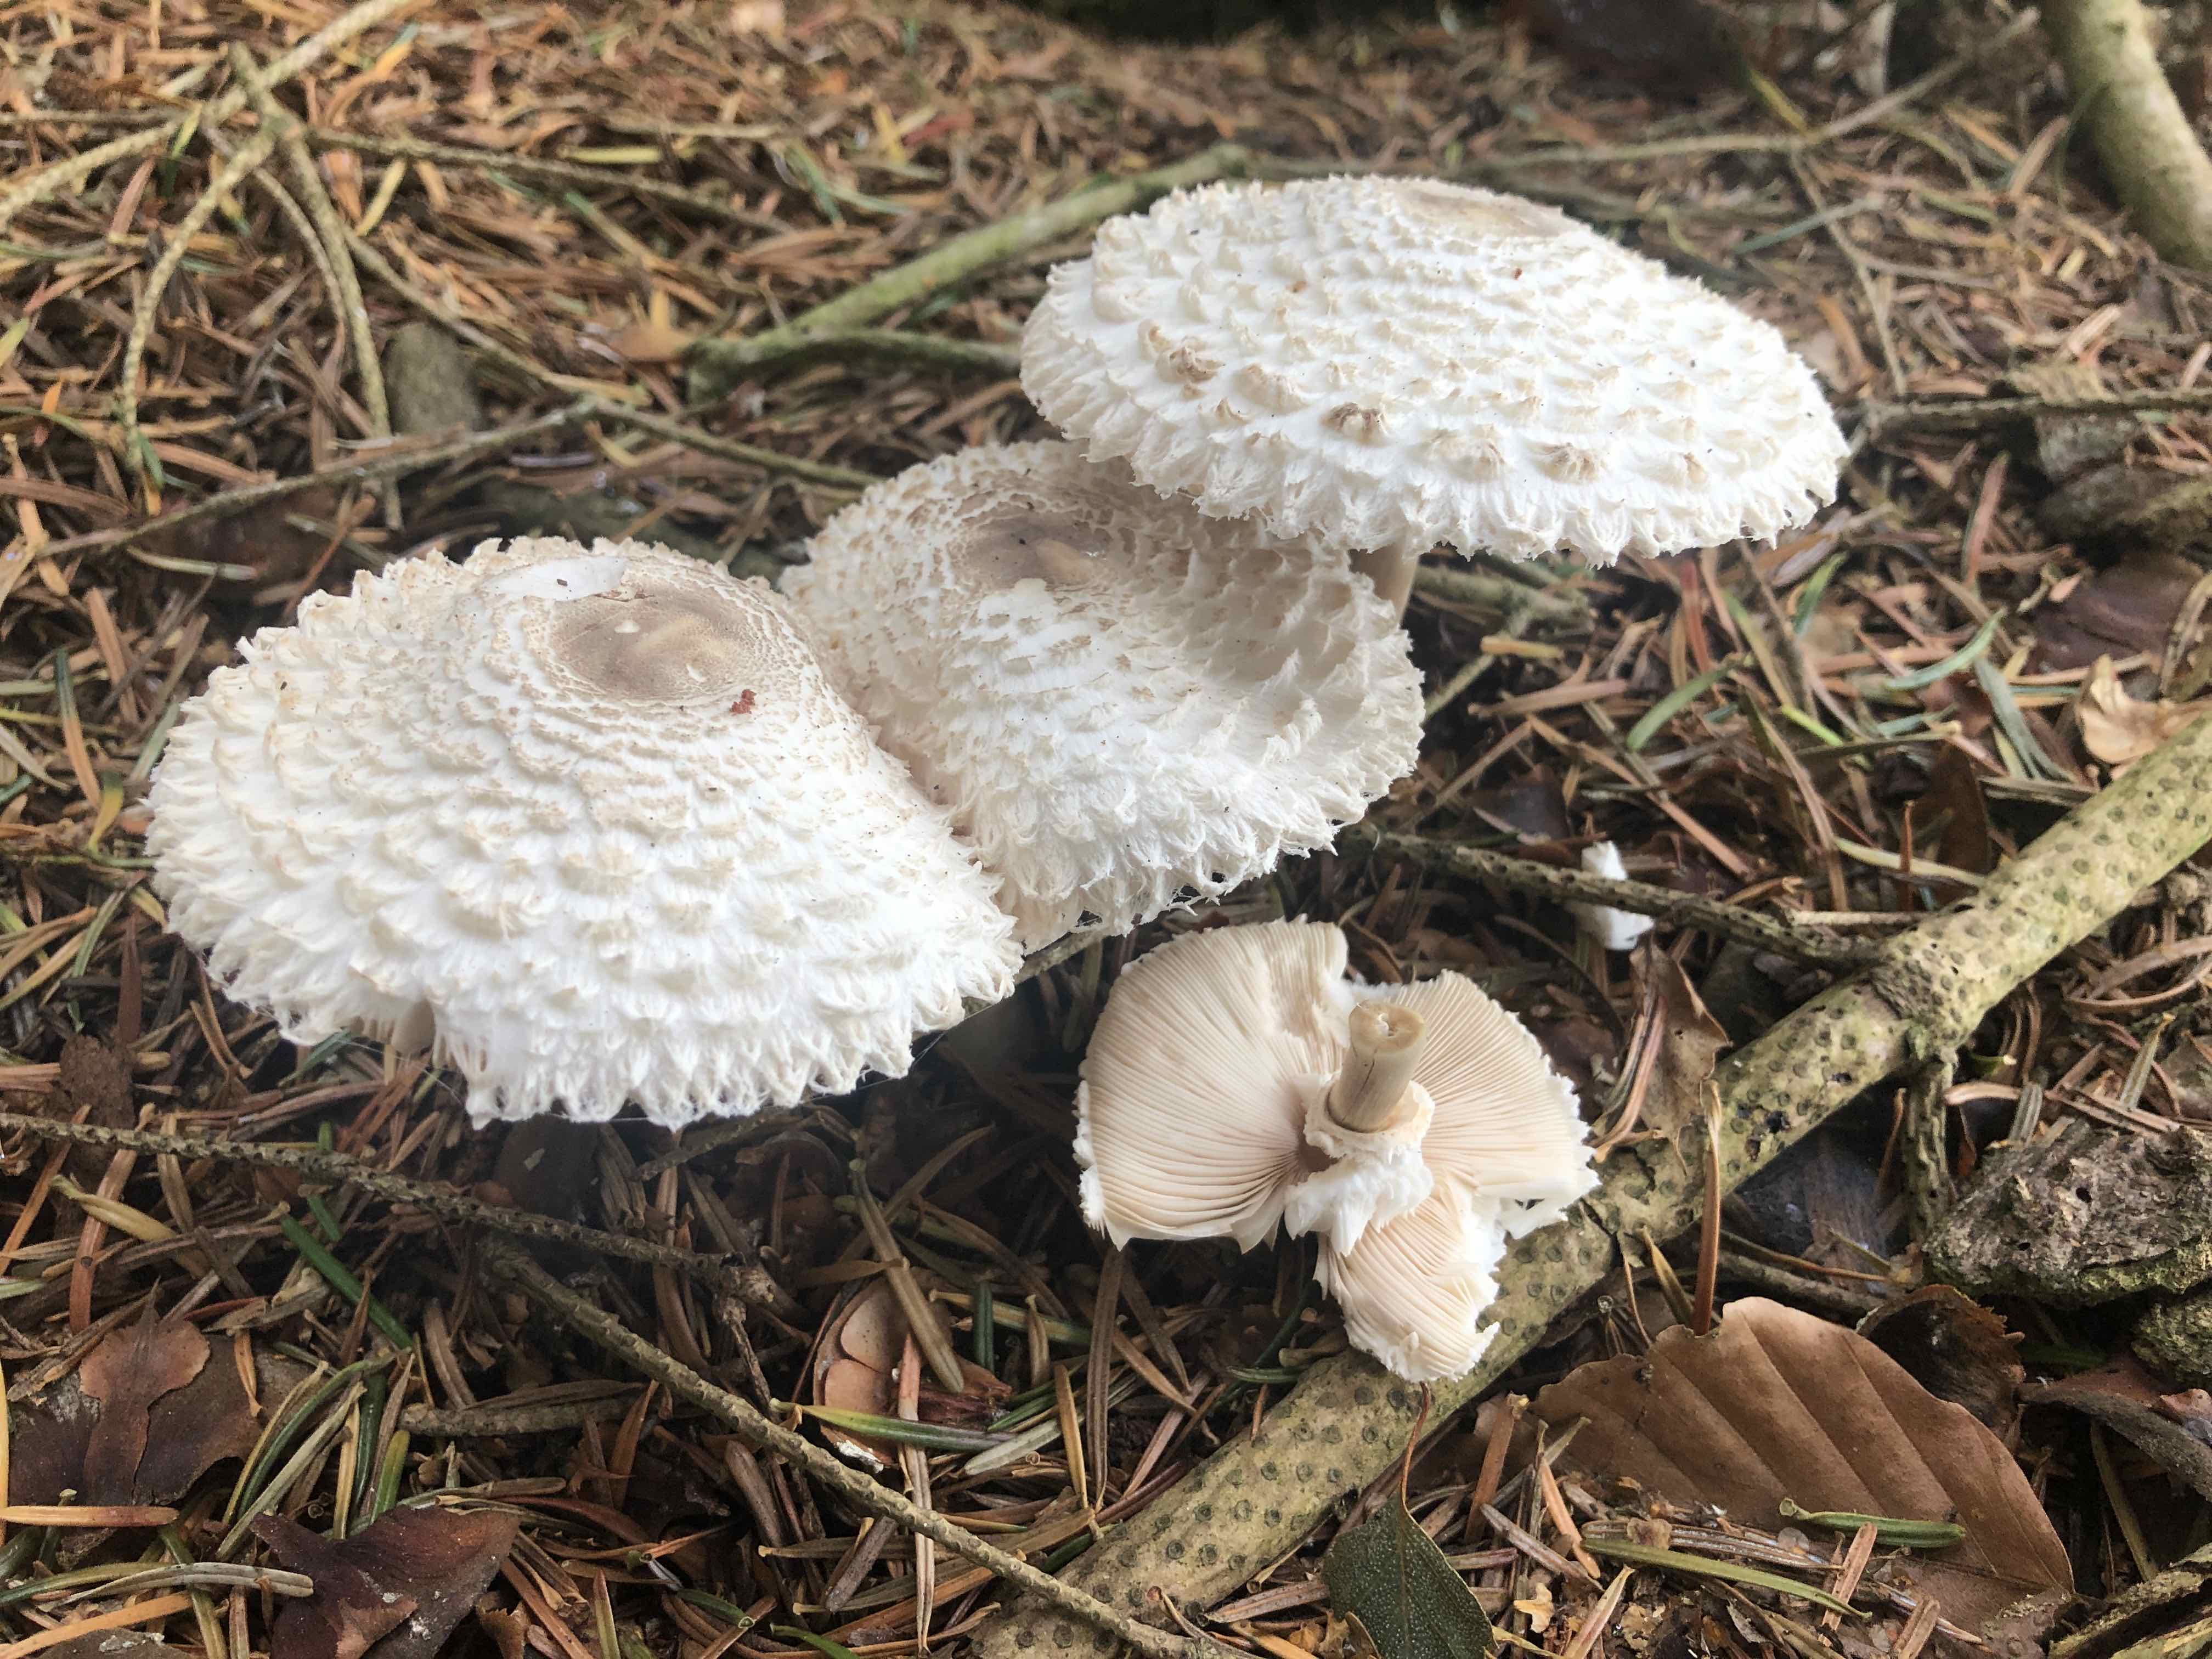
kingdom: Fungi
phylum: Basidiomycota
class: Agaricomycetes
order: Agaricales
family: Agaricaceae
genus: Leucoagaricus
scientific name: Leucoagaricus nympharum
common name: gran-silkehat
